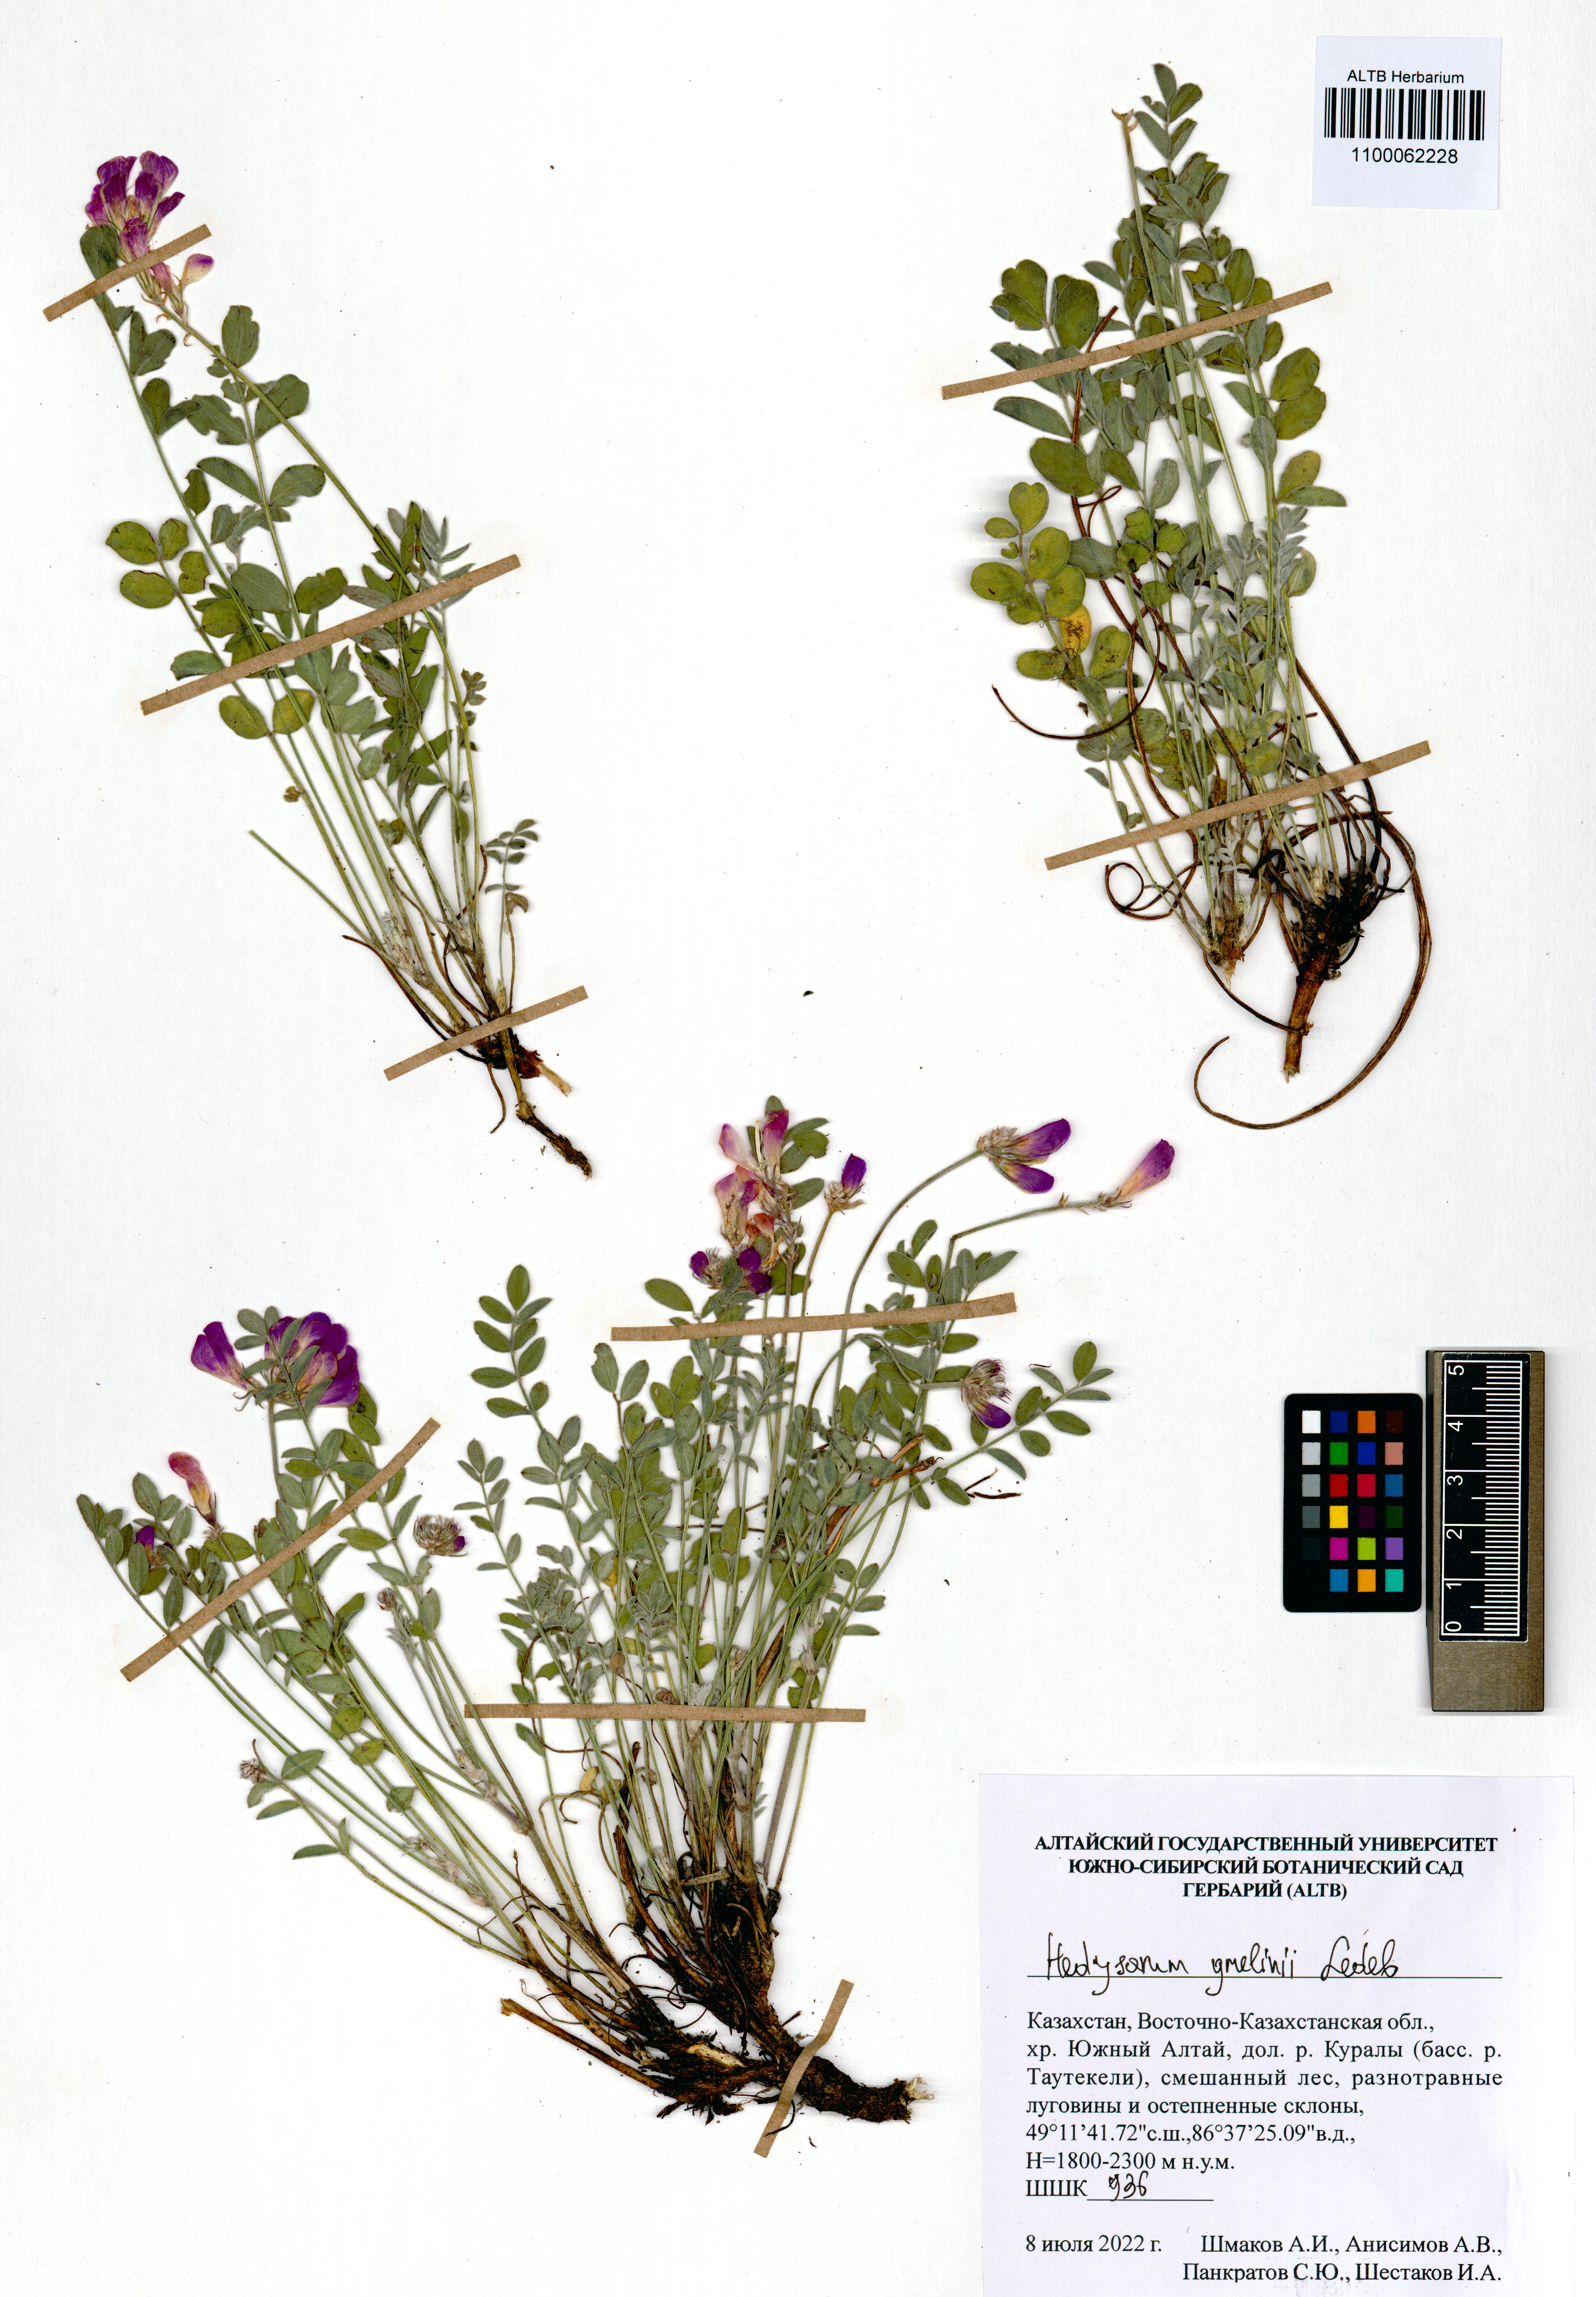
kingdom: Plantae
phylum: Tracheophyta
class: Magnoliopsida
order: Fabales
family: Fabaceae
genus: Hedysarum
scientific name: Hedysarum gmelinii
